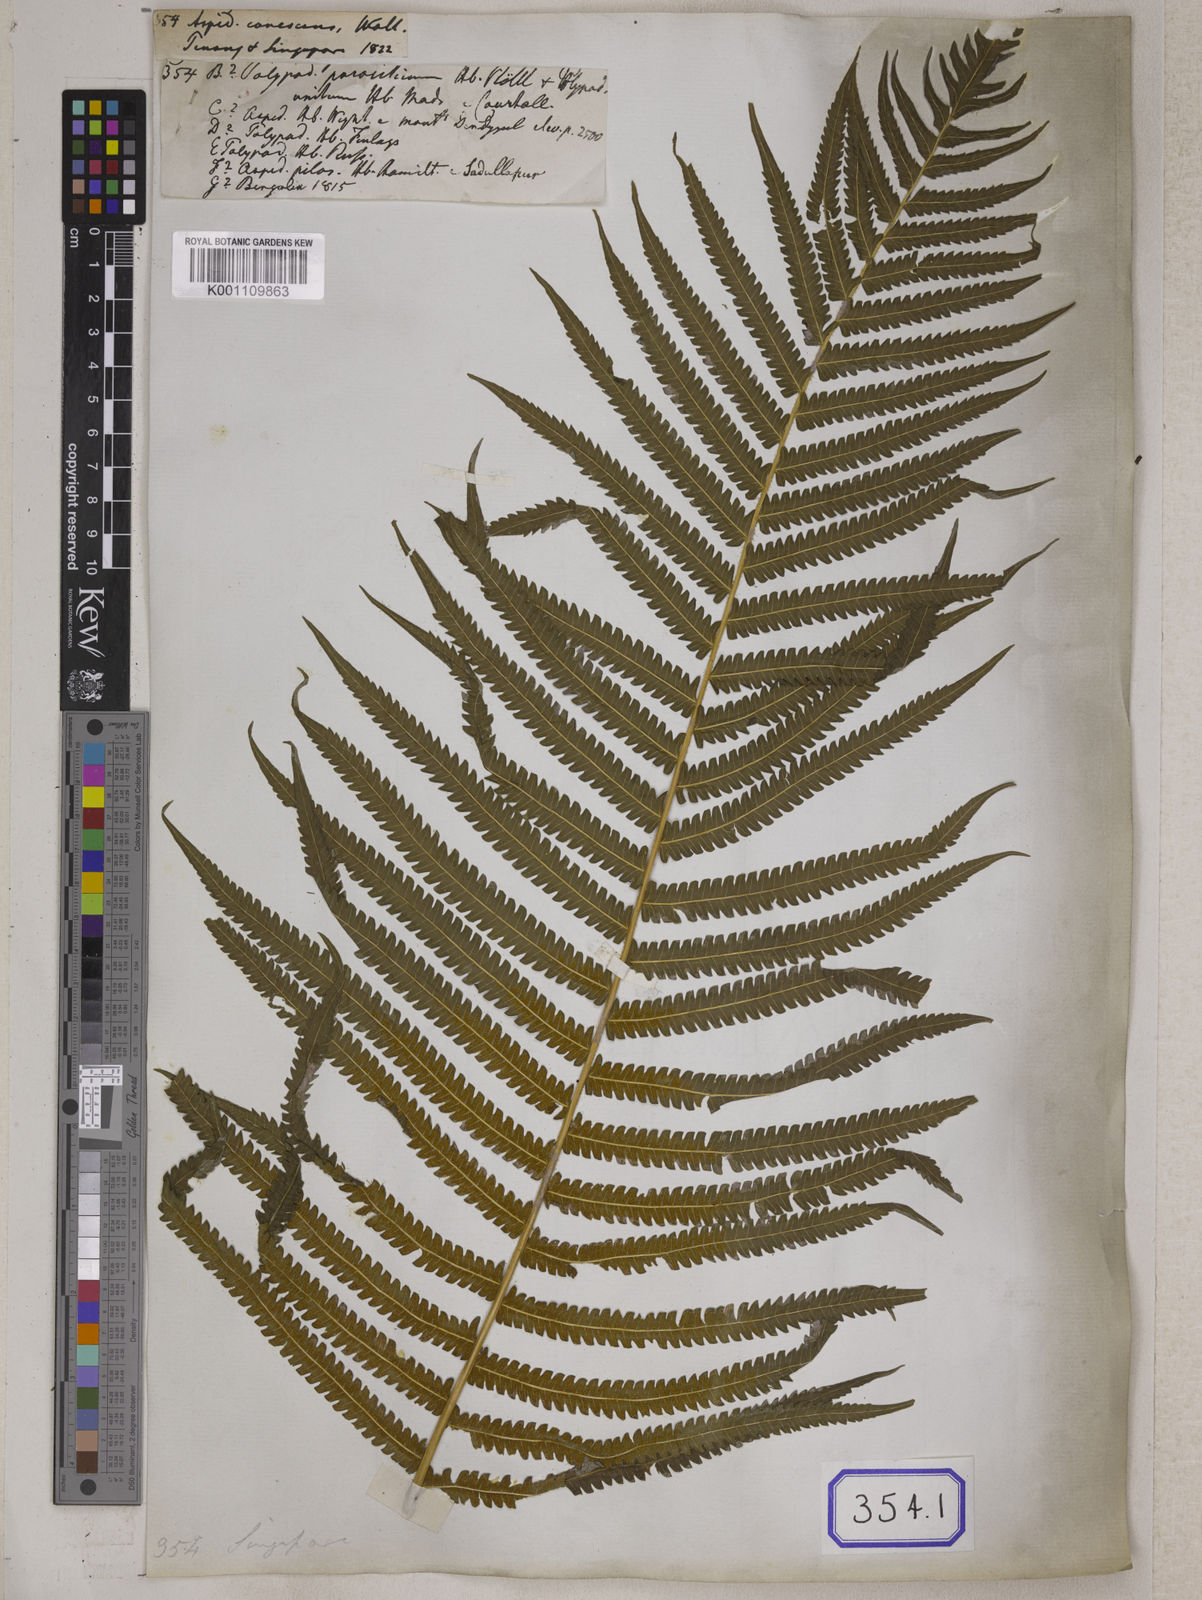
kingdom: Plantae
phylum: Tracheophyta
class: Polypodiopsida
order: Polypodiales
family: Tectariaceae
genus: Tectaria
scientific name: Tectaria Aspidium spec
